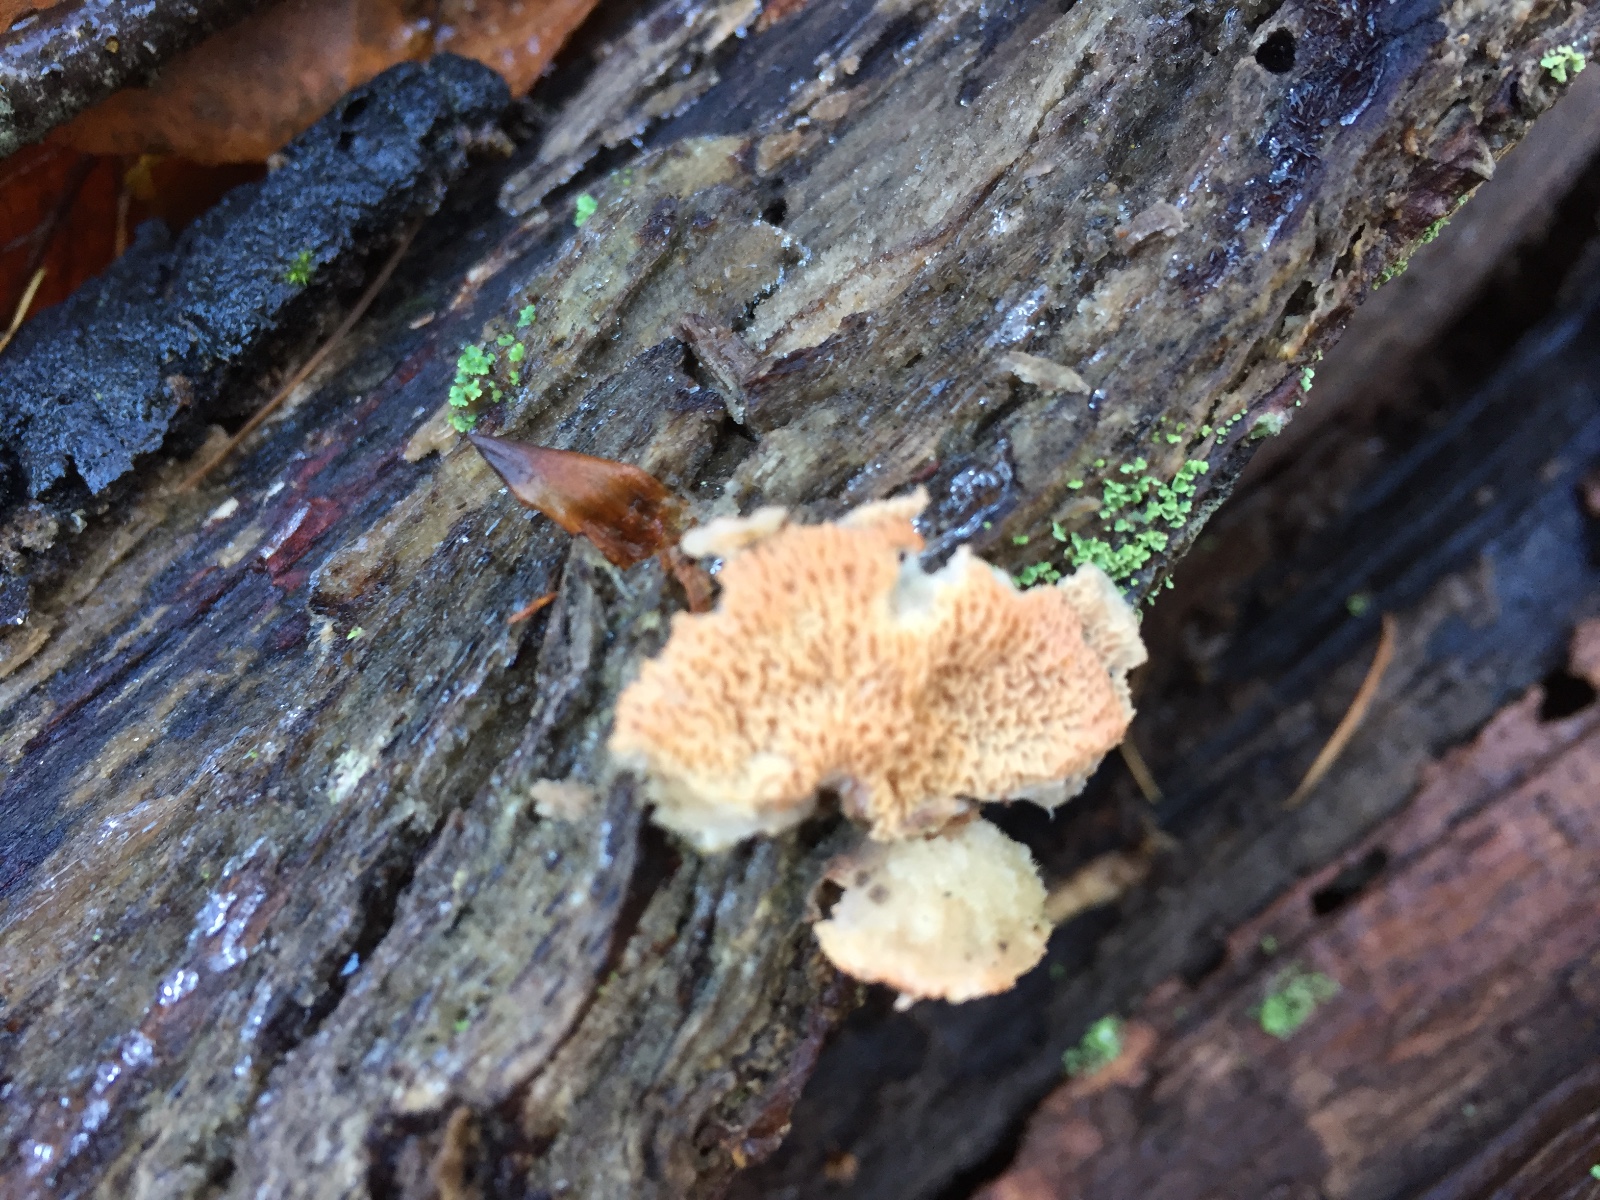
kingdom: Fungi
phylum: Basidiomycota
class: Agaricomycetes
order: Polyporales
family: Meruliaceae
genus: Phlebia
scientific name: Phlebia tremellosa
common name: bævrende åresvamp
